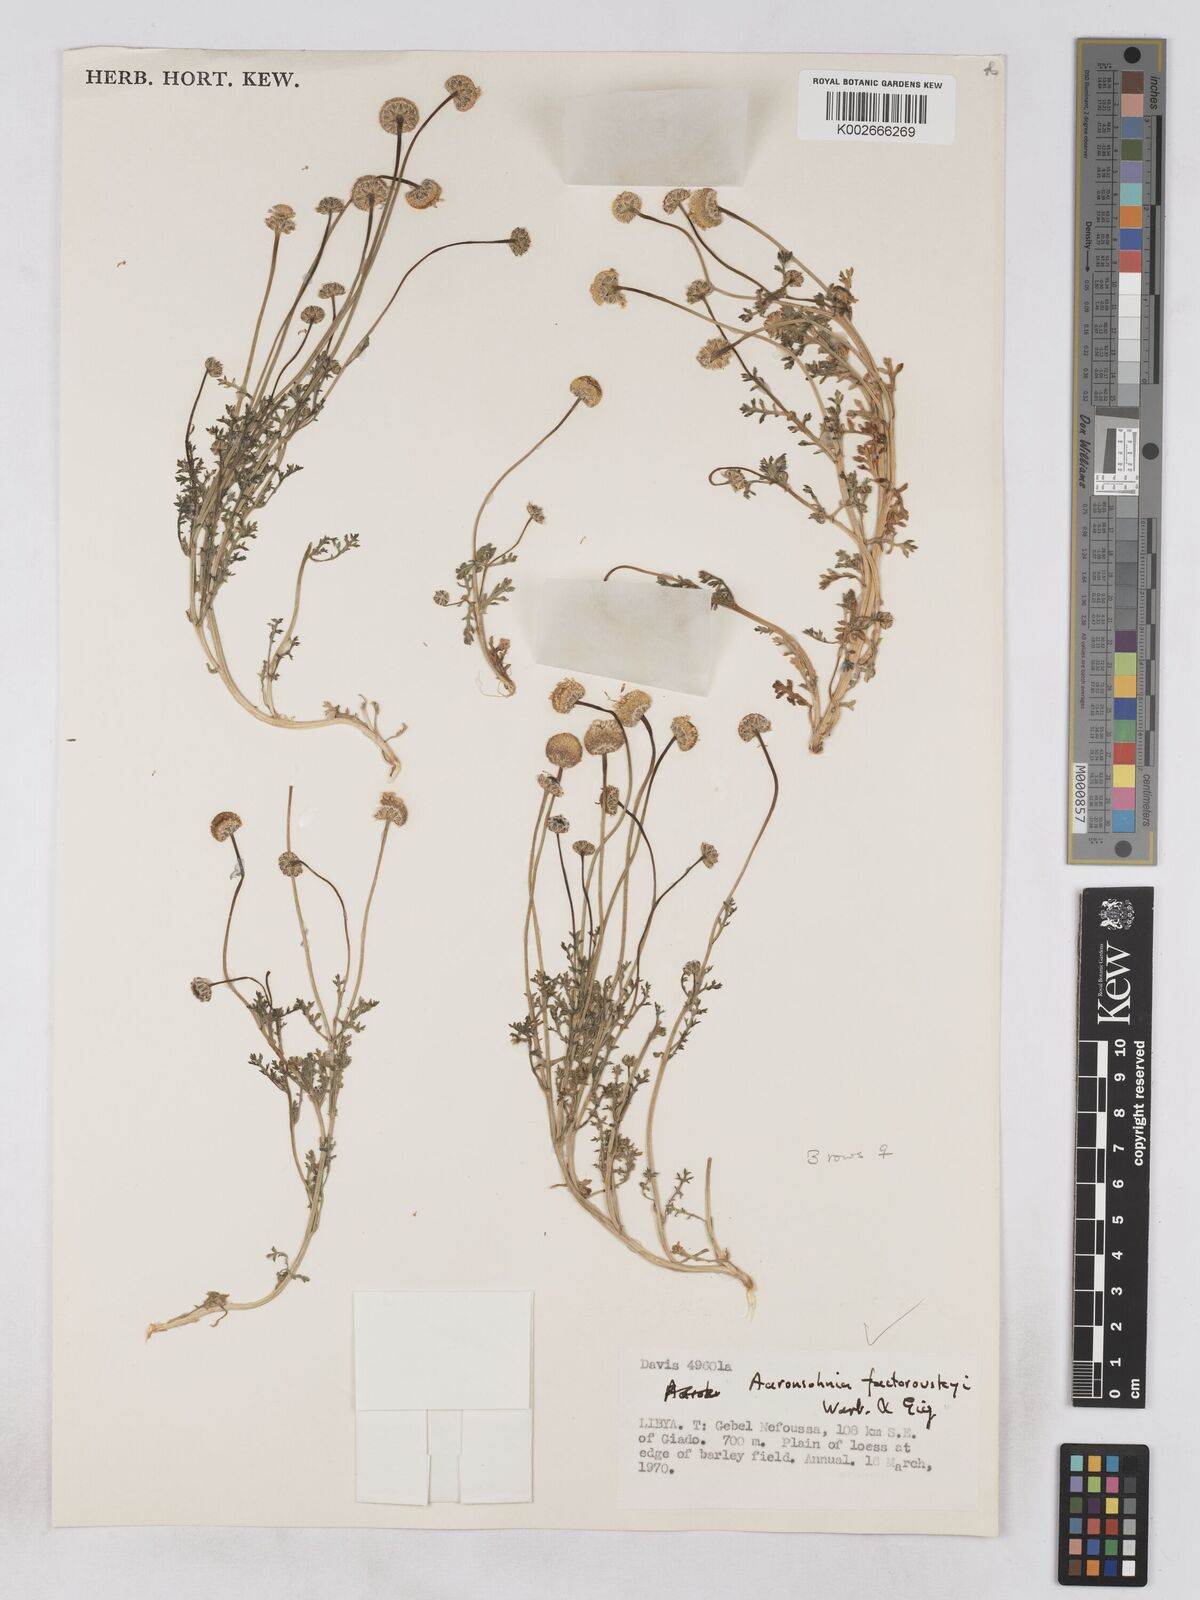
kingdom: Plantae
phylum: Tracheophyta
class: Magnoliopsida
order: Asterales
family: Asteraceae
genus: Otoglyphis
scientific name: Otoglyphis factorovskyi
